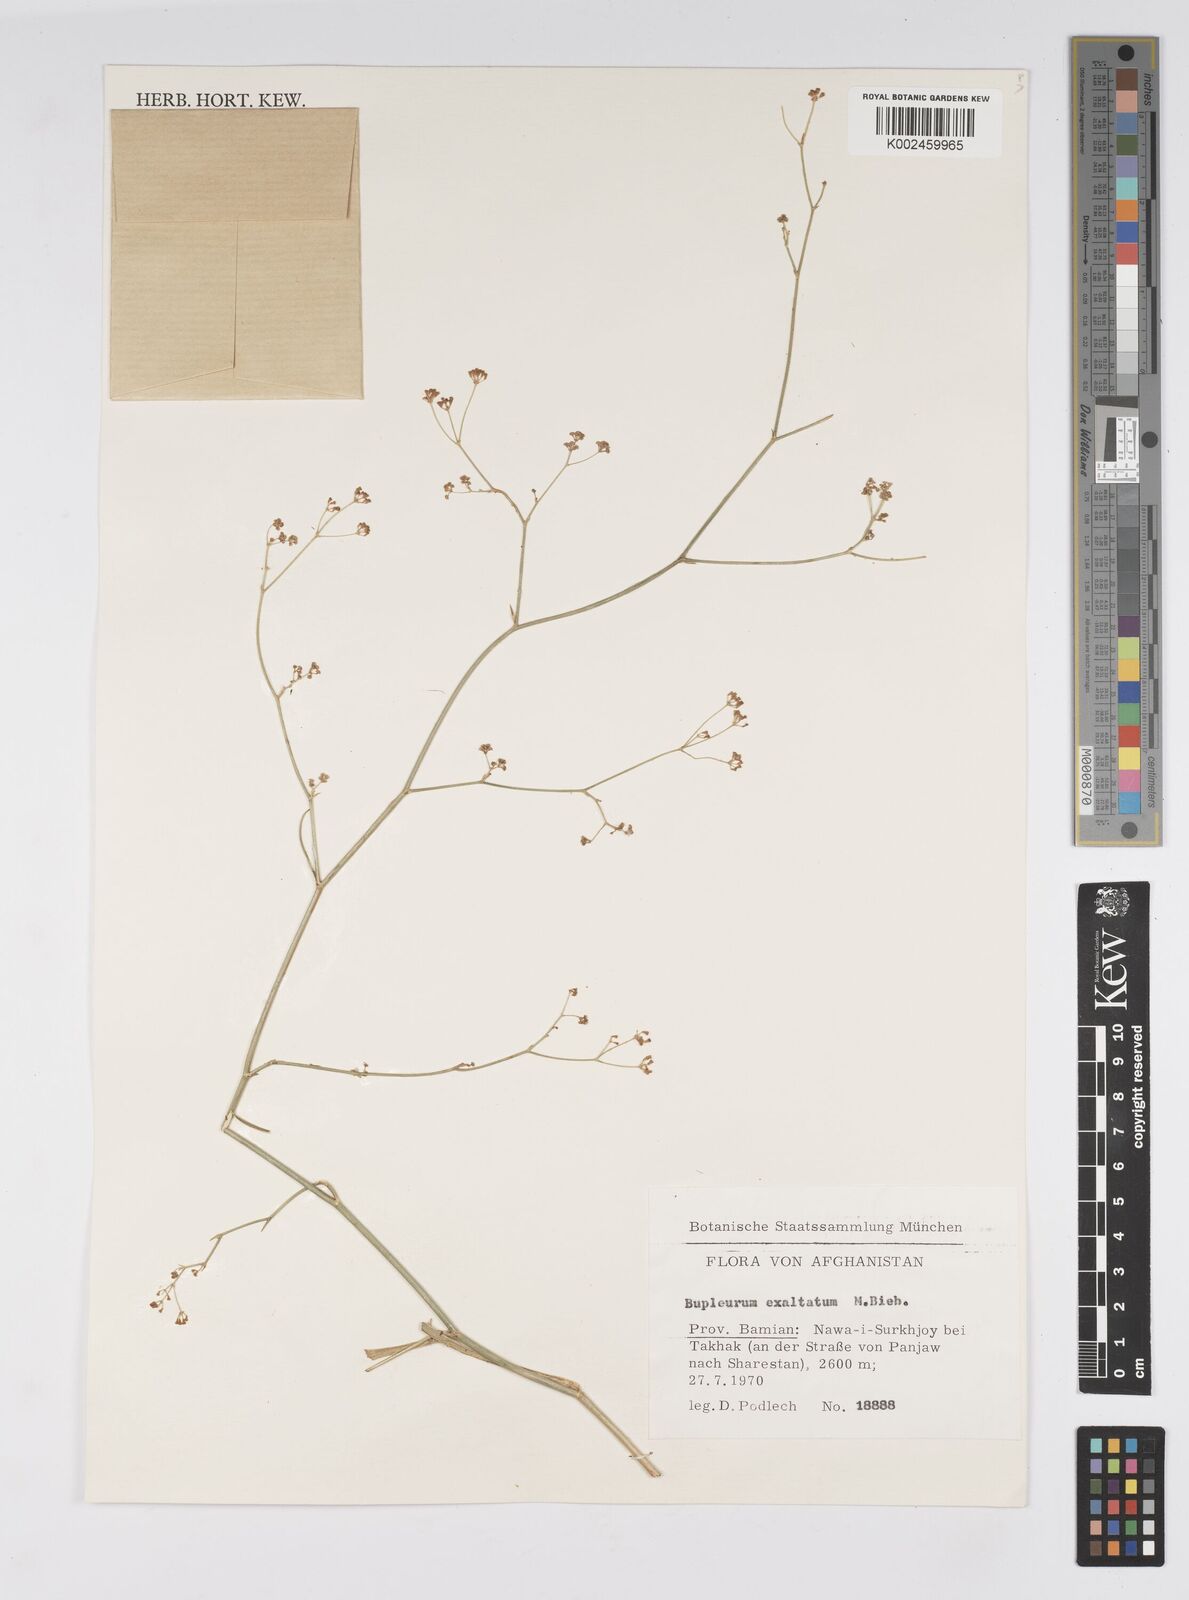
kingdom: Plantae
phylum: Tracheophyta
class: Magnoliopsida
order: Apiales
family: Apiaceae
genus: Bupleurum
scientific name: Bupleurum falcatum
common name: Sickle-leaved hare's-ear
